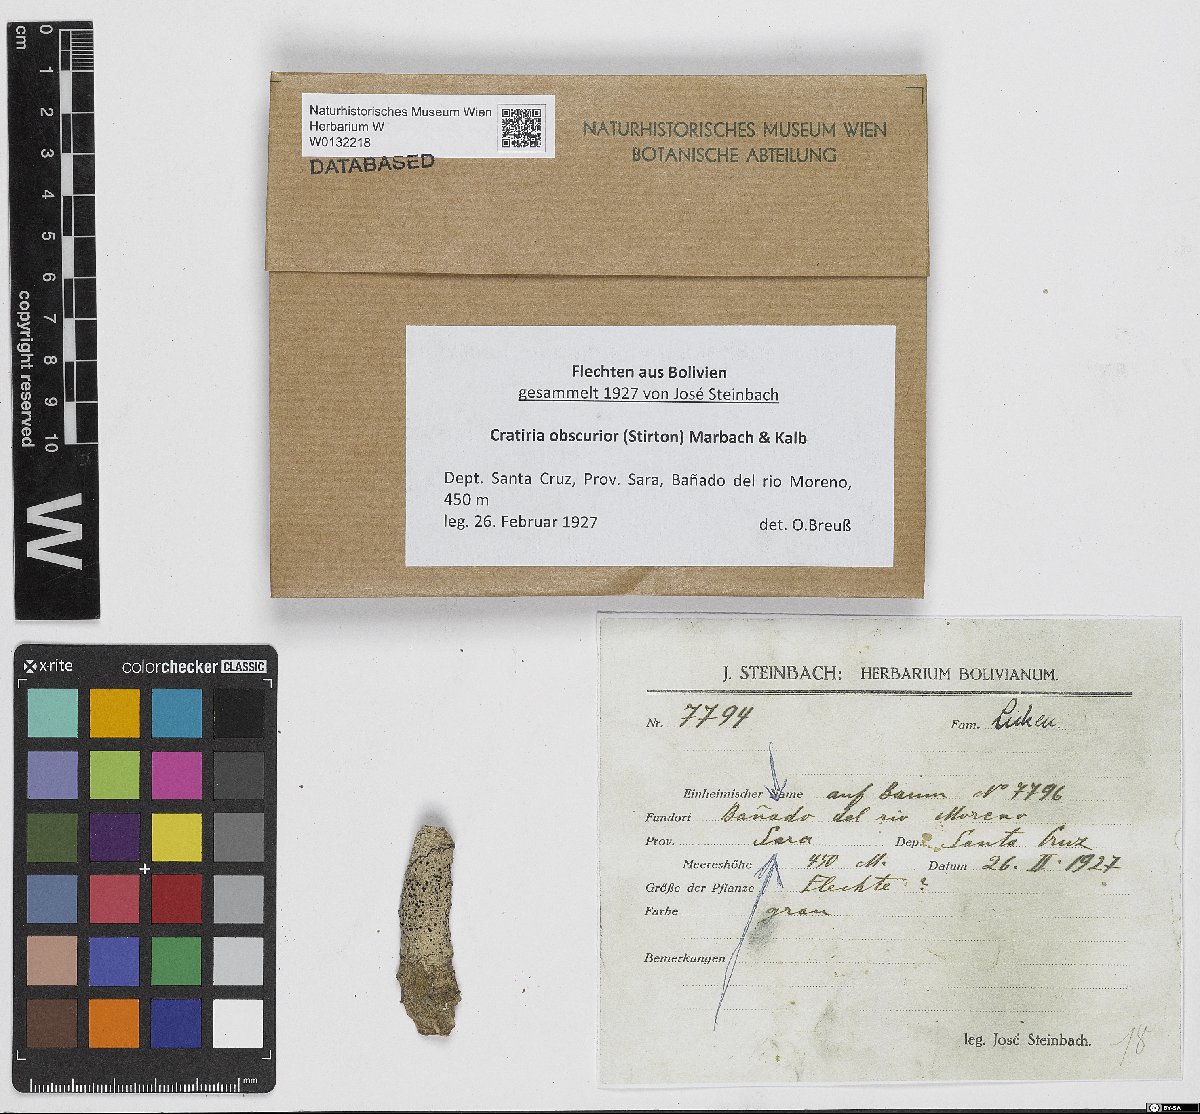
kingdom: Fungi
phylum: Ascomycota
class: Lecanoromycetes
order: Caliciales
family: Caliciaceae
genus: Cratiria
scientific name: Cratiria obscurior
